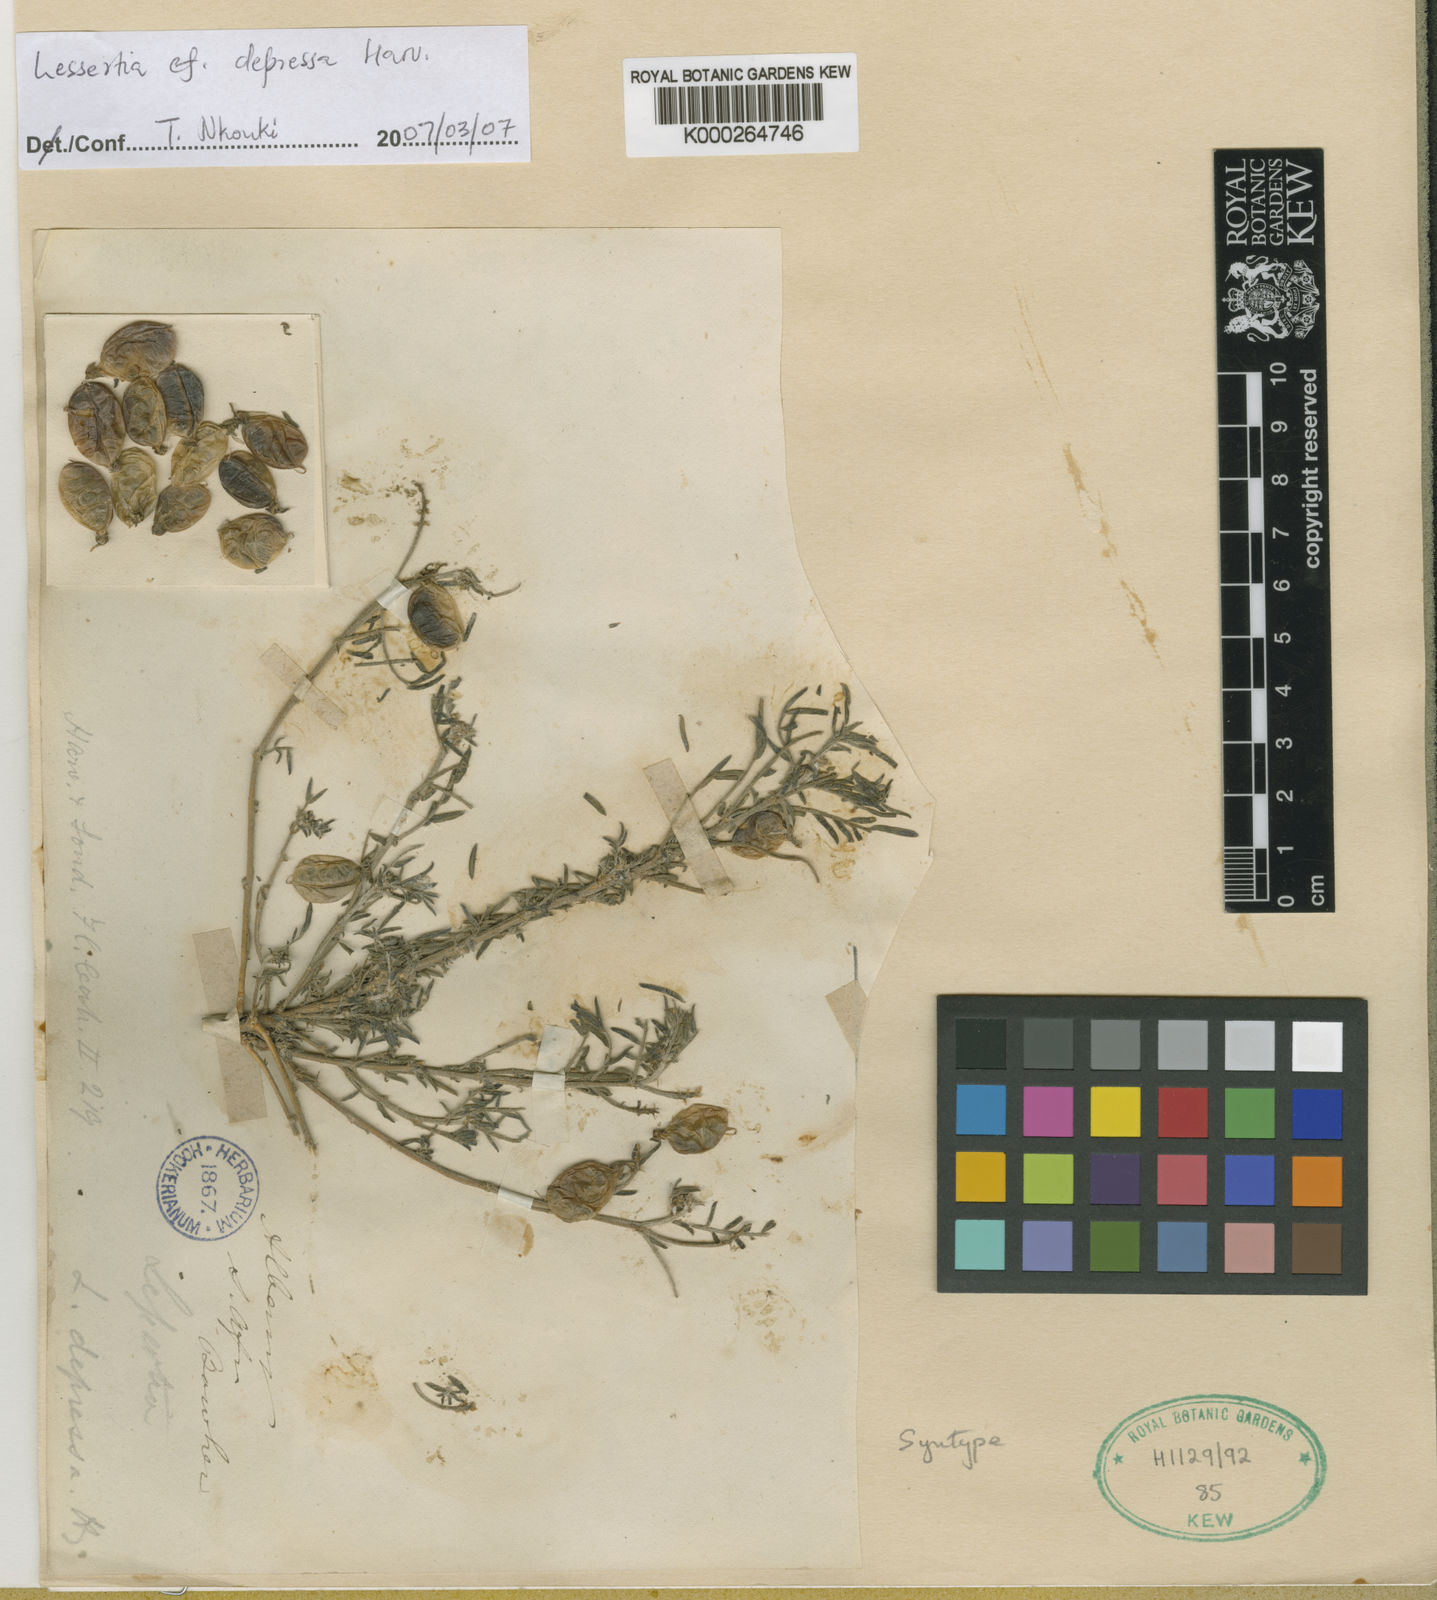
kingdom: Plantae
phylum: Tracheophyta
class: Magnoliopsida
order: Fabales
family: Fabaceae
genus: Lessertia
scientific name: Lessertia depressa
